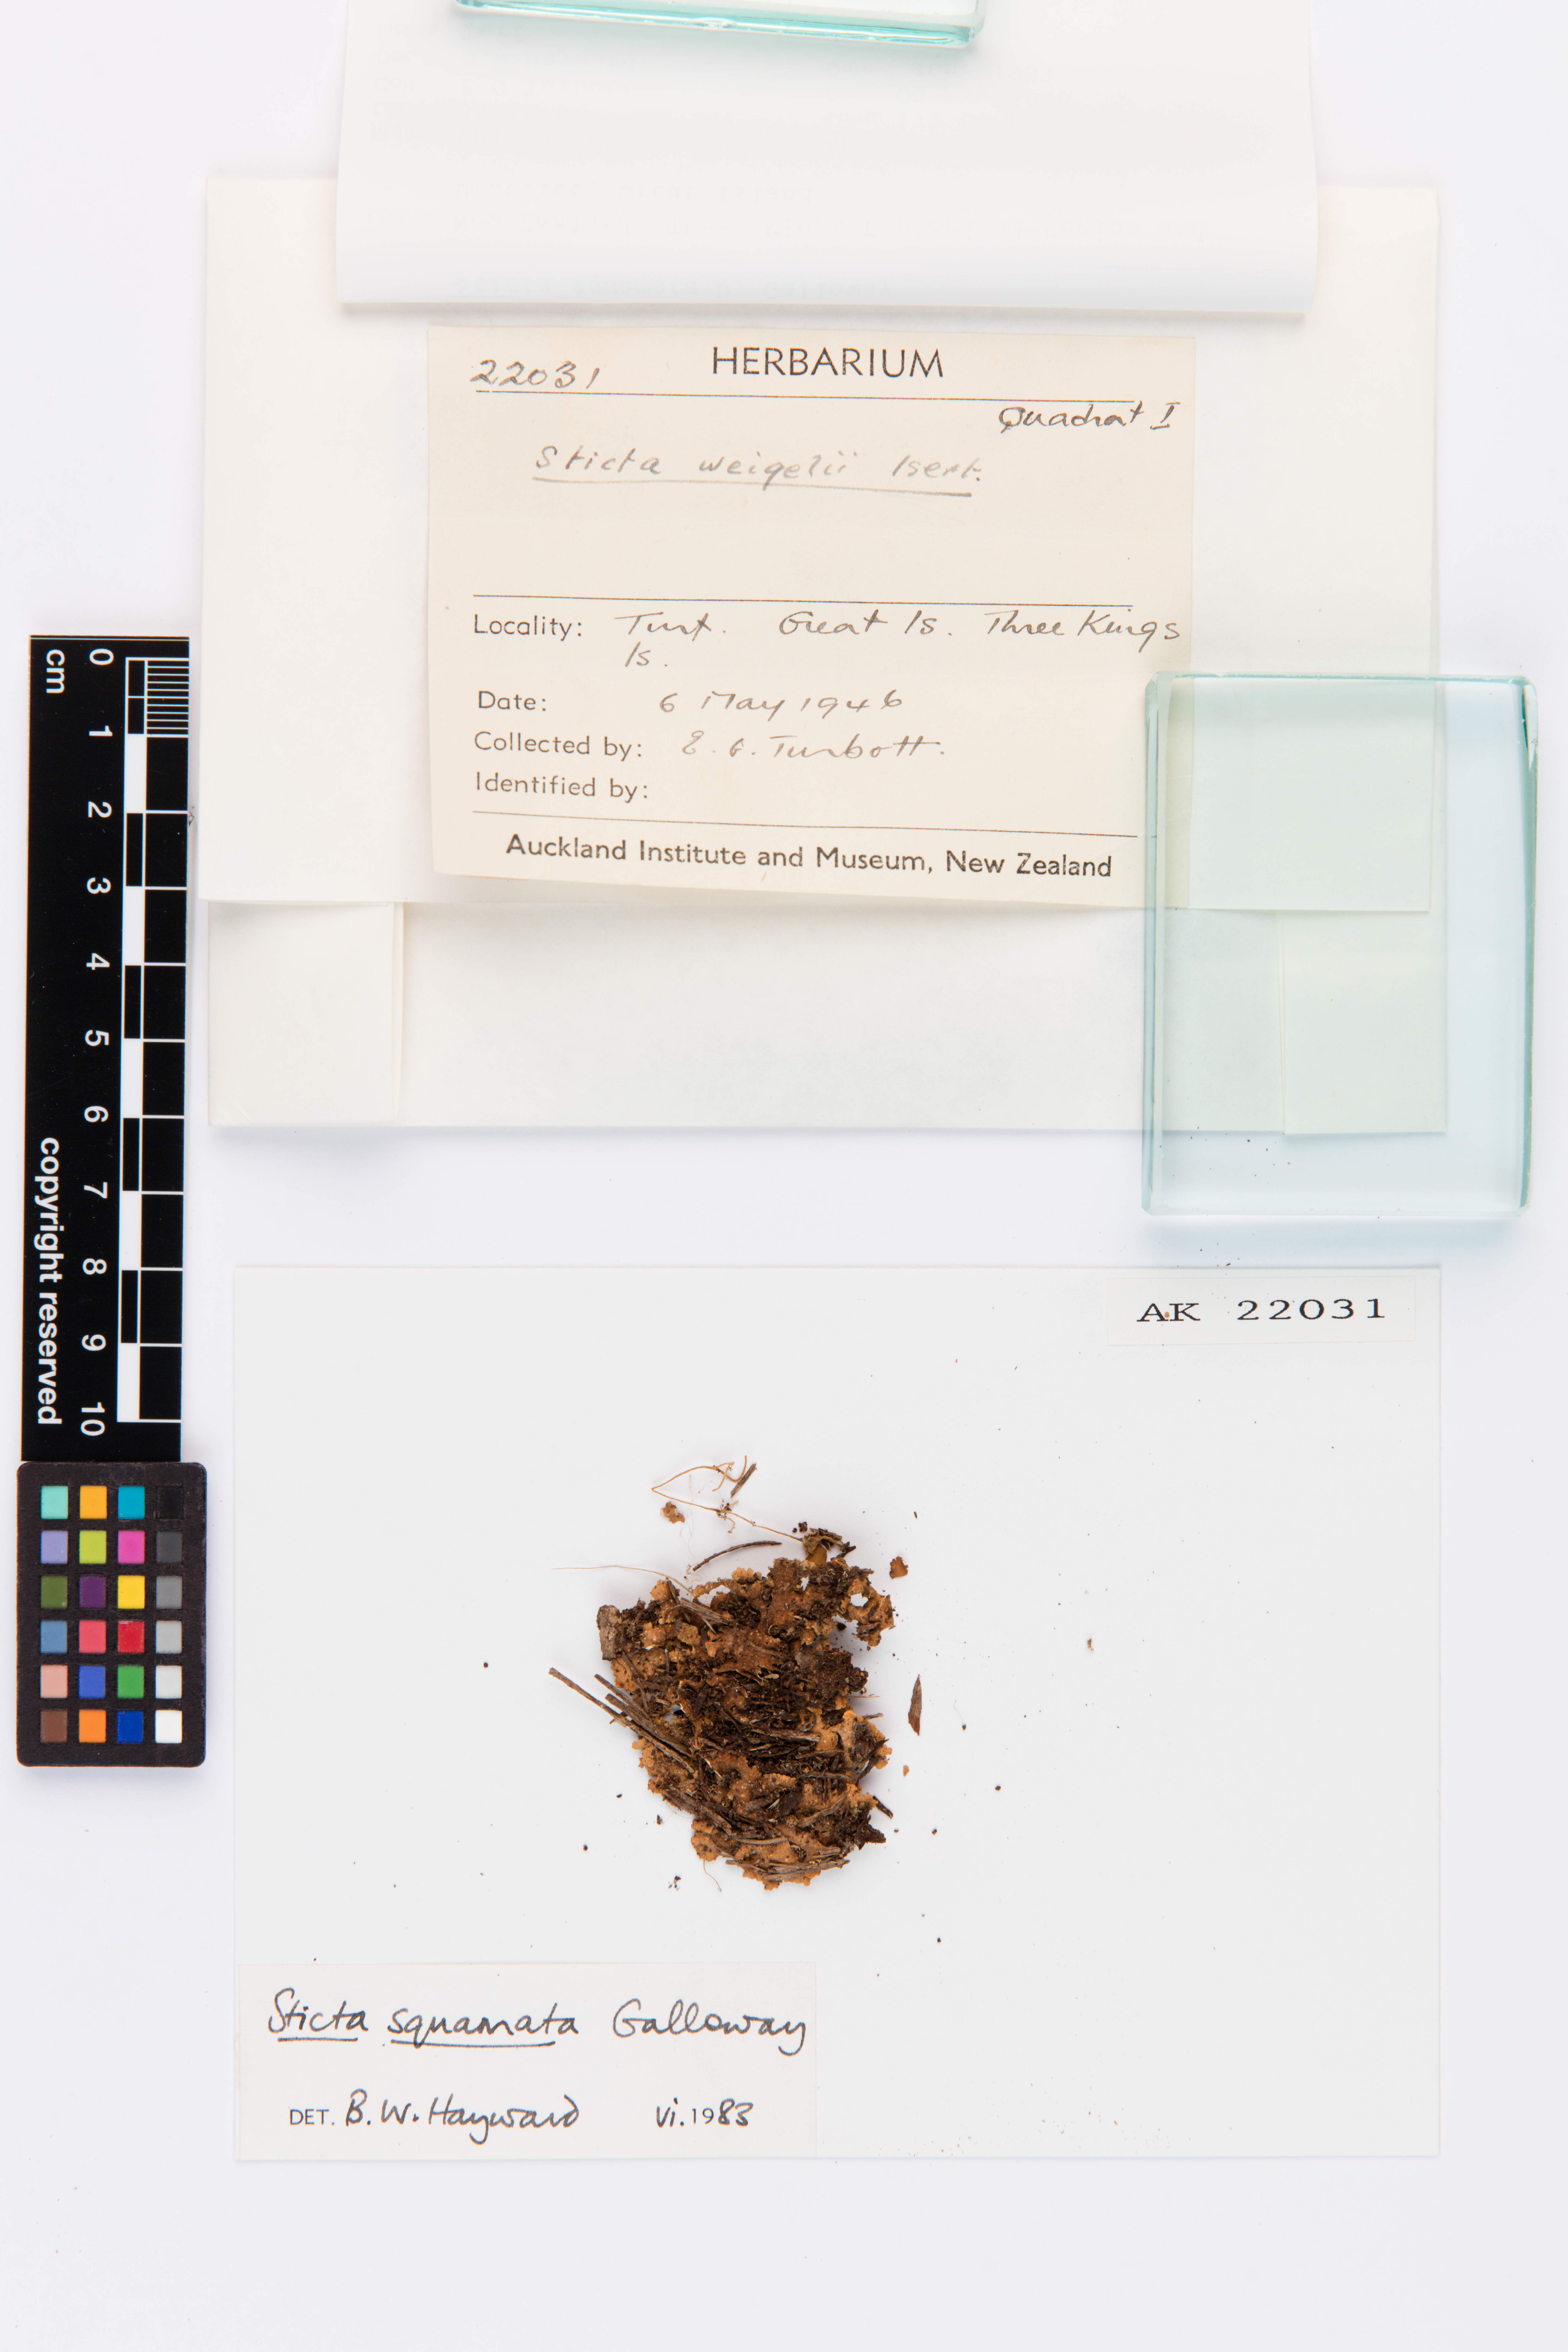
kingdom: Fungi
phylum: Ascomycota
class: Lecanoromycetes
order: Peltigerales
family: Lobariaceae
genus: Sticta
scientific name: Sticta squamata
